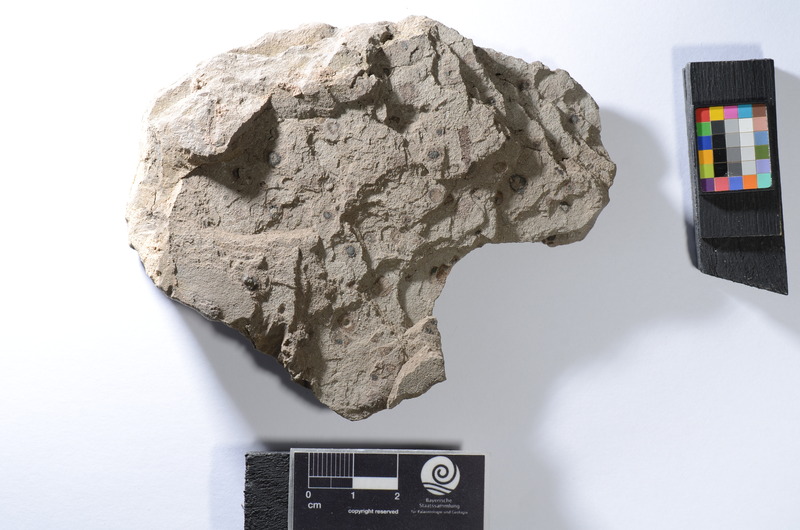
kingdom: Animalia
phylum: Chordata
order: Clupeiformes
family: Clupeidae
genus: Sprattus
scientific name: Sprattus
